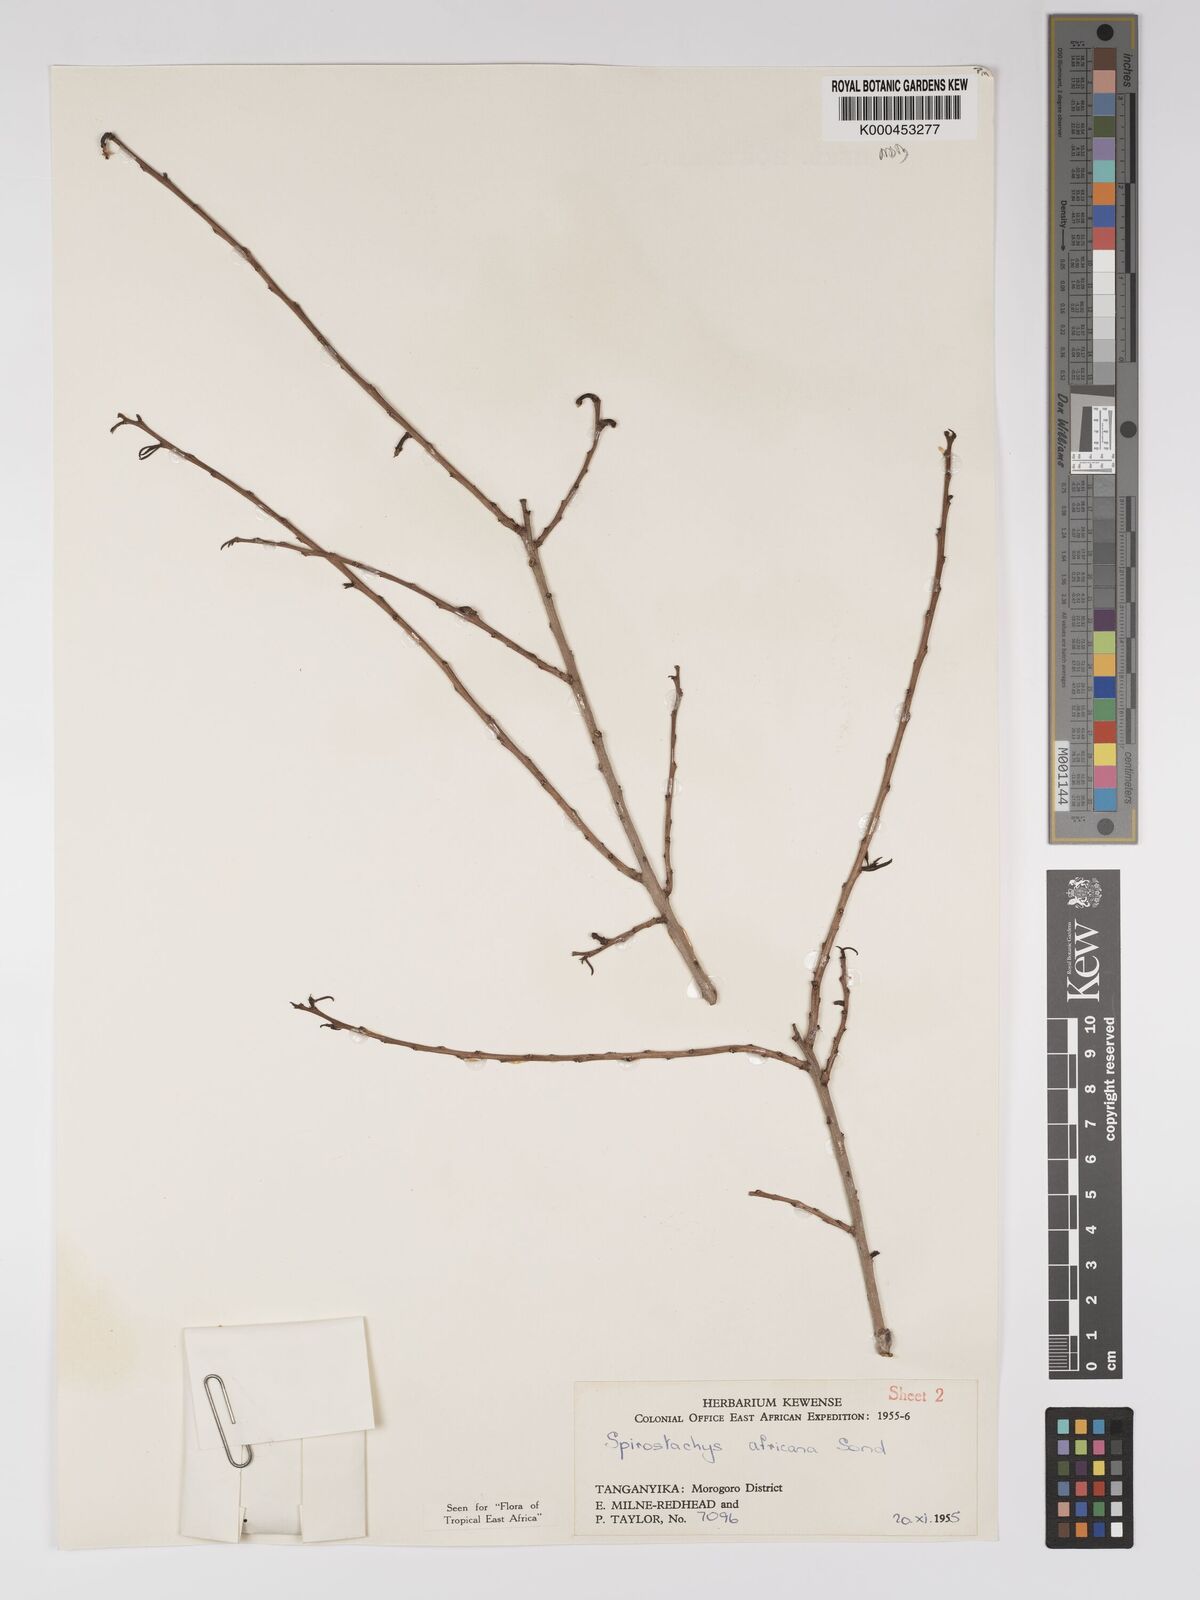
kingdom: Plantae
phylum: Tracheophyta
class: Magnoliopsida
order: Malpighiales
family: Euphorbiaceae
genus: Spirostachys
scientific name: Spirostachys africana
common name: Tamboti
